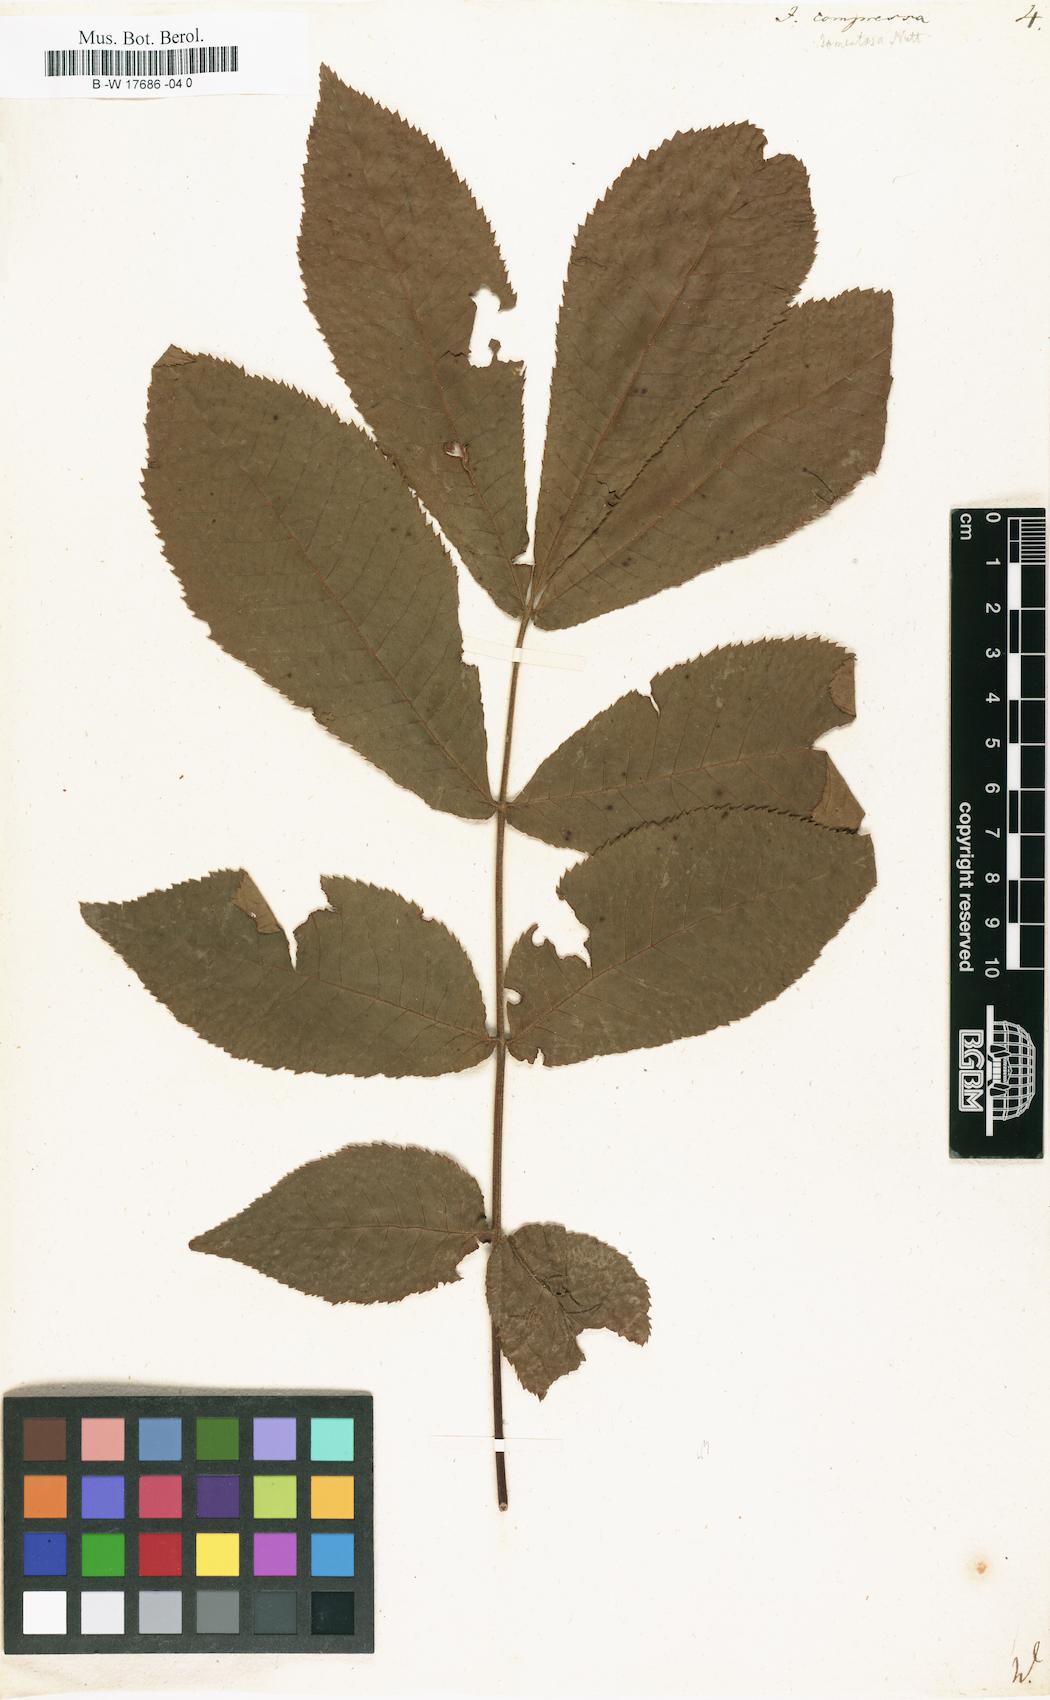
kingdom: Plantae
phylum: Tracheophyta
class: Magnoliopsida
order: Fagales
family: Juglandaceae
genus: Carya
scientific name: Carya cordiformis
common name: Bitternut hickory
